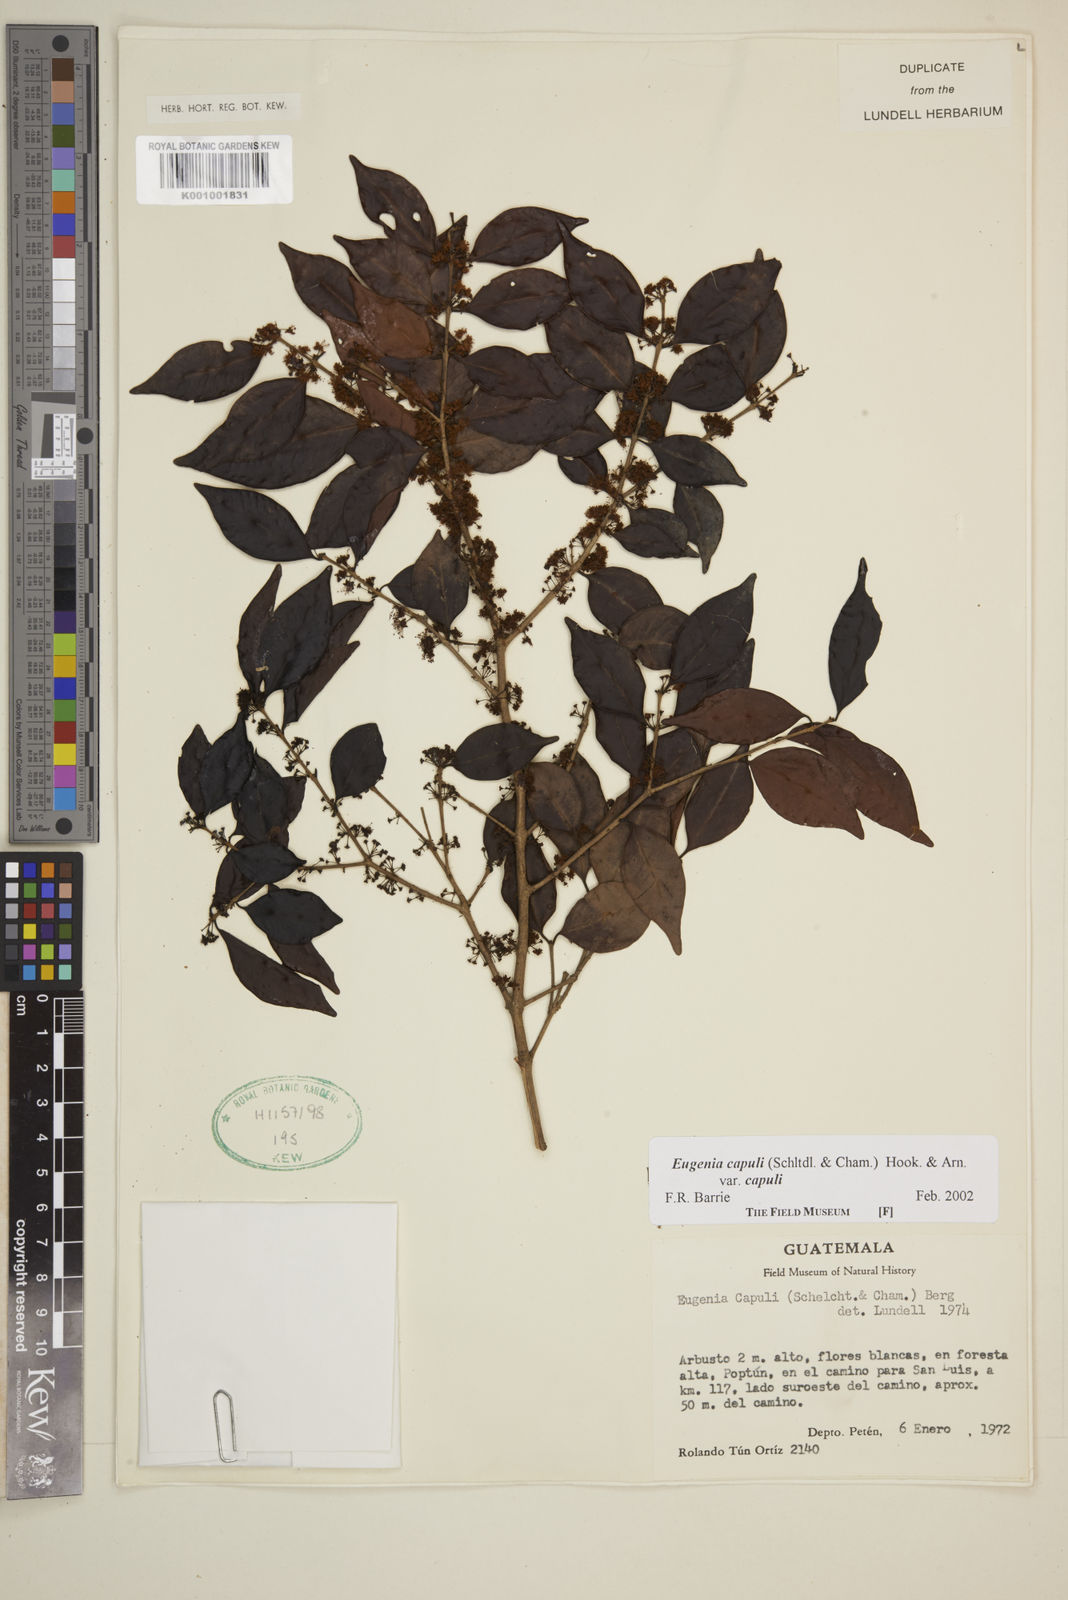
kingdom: Plantae
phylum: Tracheophyta
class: Magnoliopsida
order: Myrtales
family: Myrtaceae
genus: Eugenia
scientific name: Eugenia capuli
